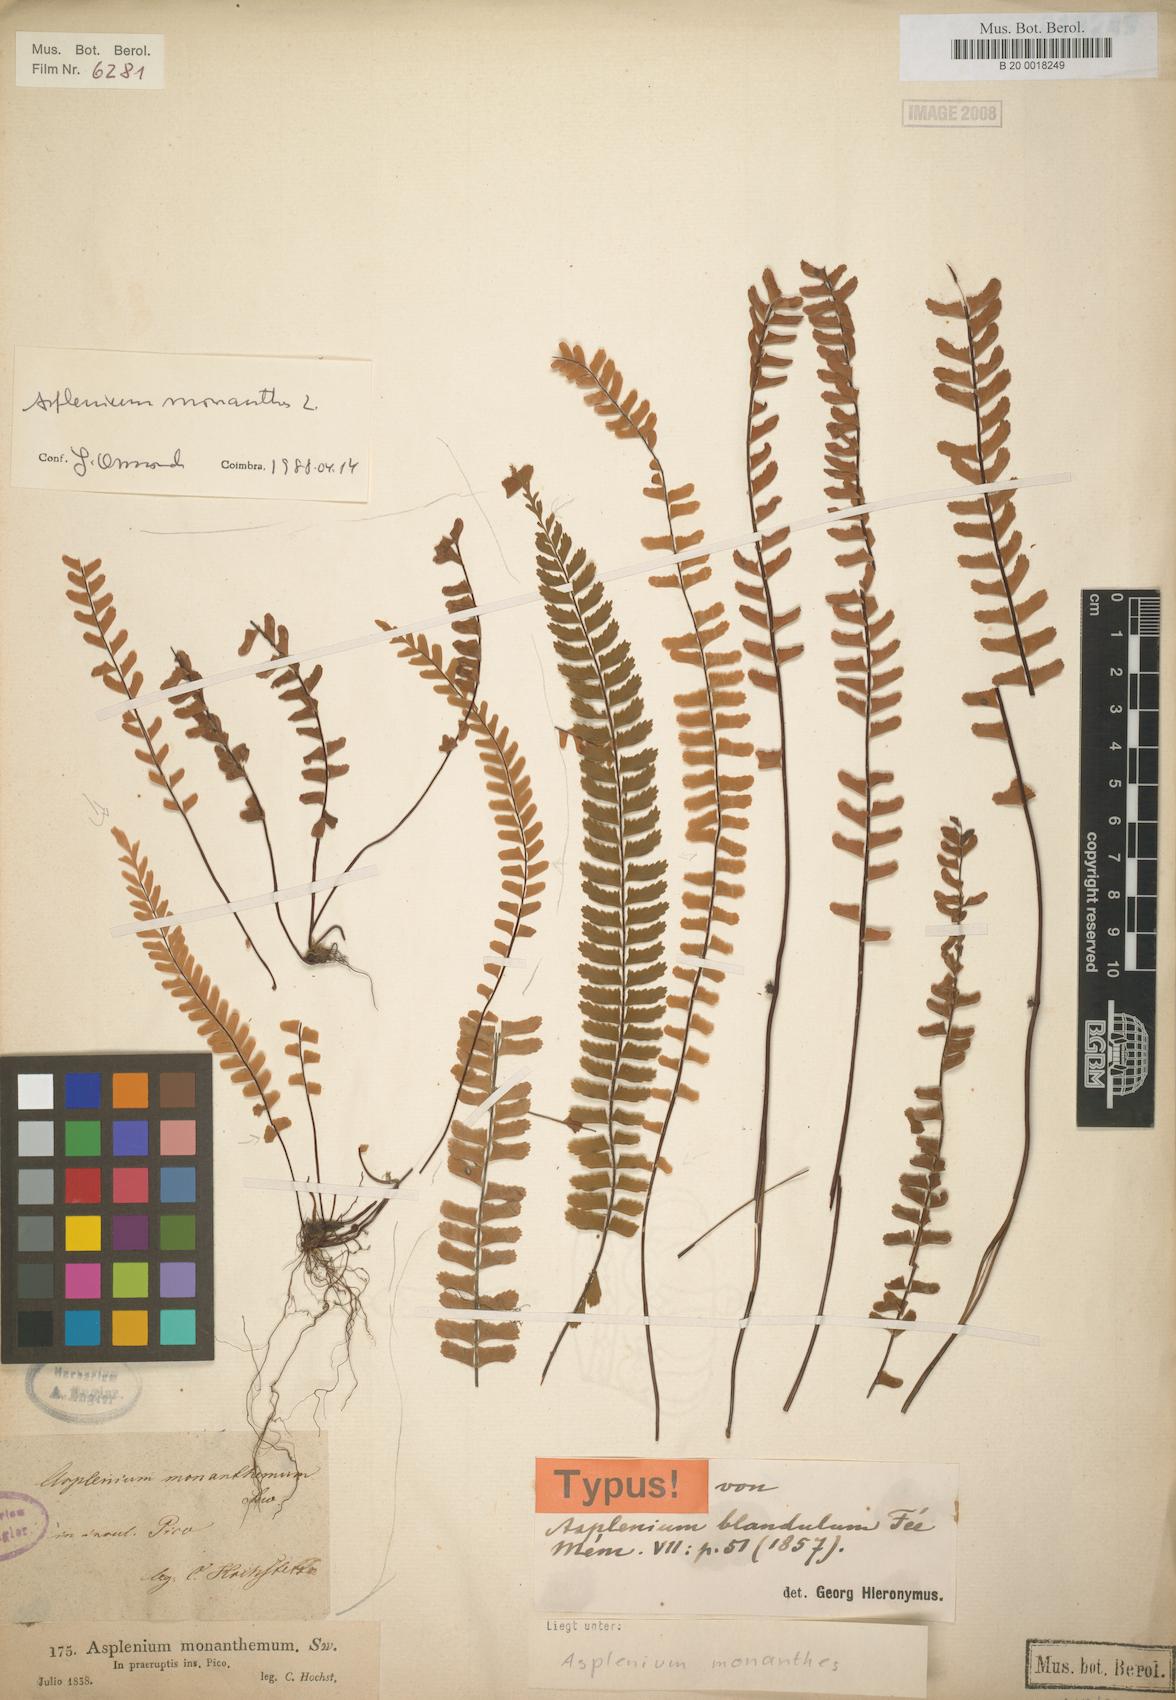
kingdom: Plantae
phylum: Tracheophyta
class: Polypodiopsida
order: Polypodiales
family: Aspleniaceae
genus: Asplenium
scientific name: Asplenium monanthes
